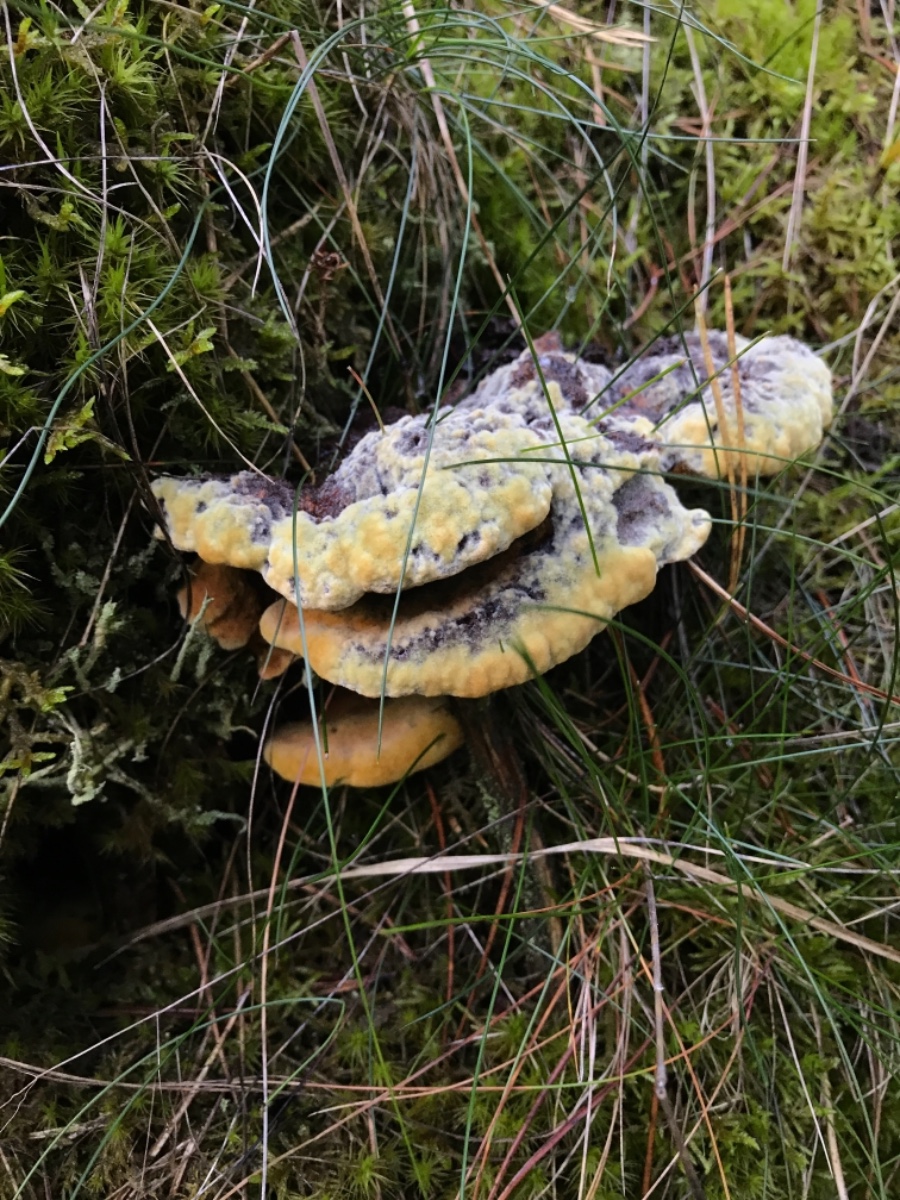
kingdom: Fungi
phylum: Basidiomycota
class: Agaricomycetes
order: Polyporales
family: Laetiporaceae
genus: Phaeolus
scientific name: Phaeolus schweinitzii
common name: brunporesvamp
